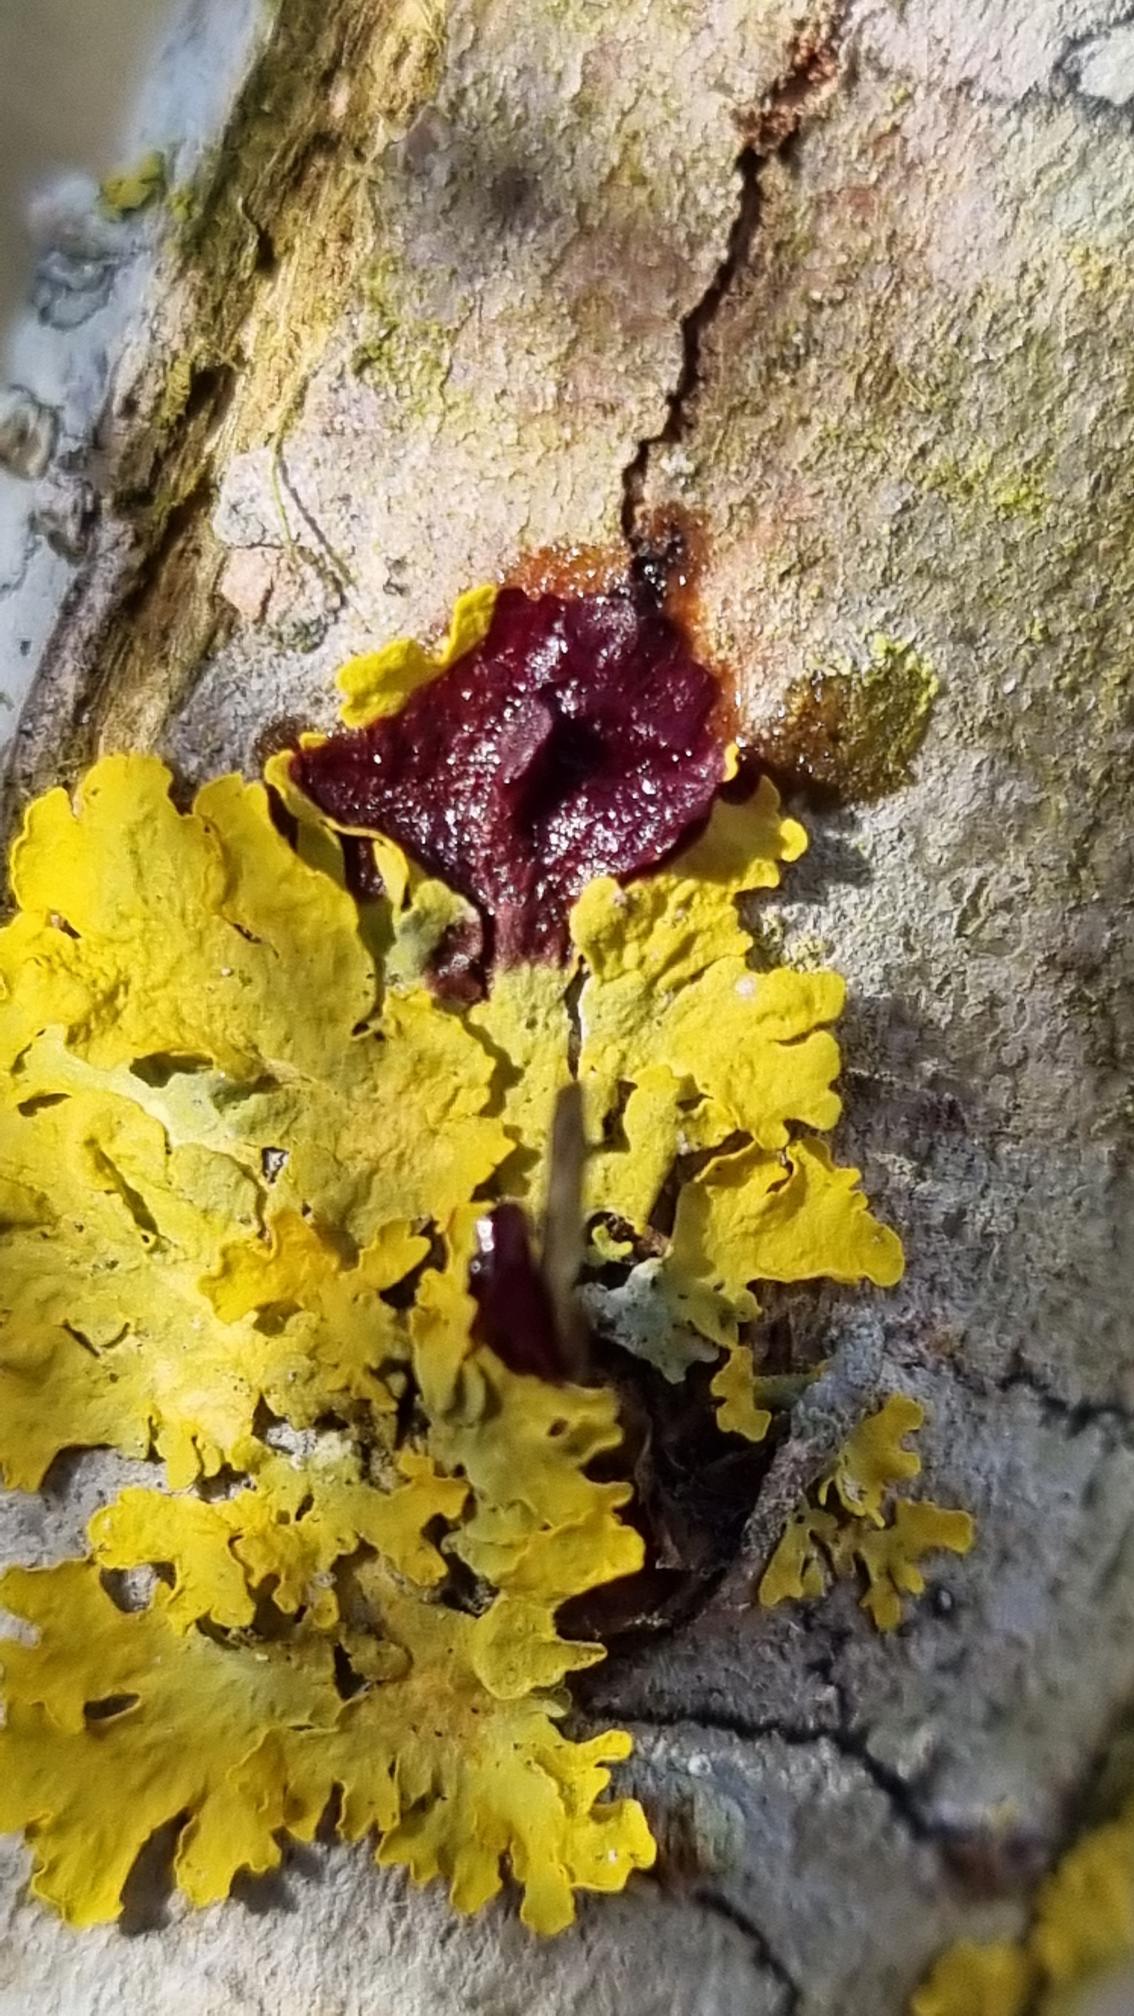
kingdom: Fungi
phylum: Ascomycota
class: Lecanoromycetes
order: Teloschistales
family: Teloschistaceae
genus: Xanthoria
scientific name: Xanthoria parietina
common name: Almindelig væggelav
